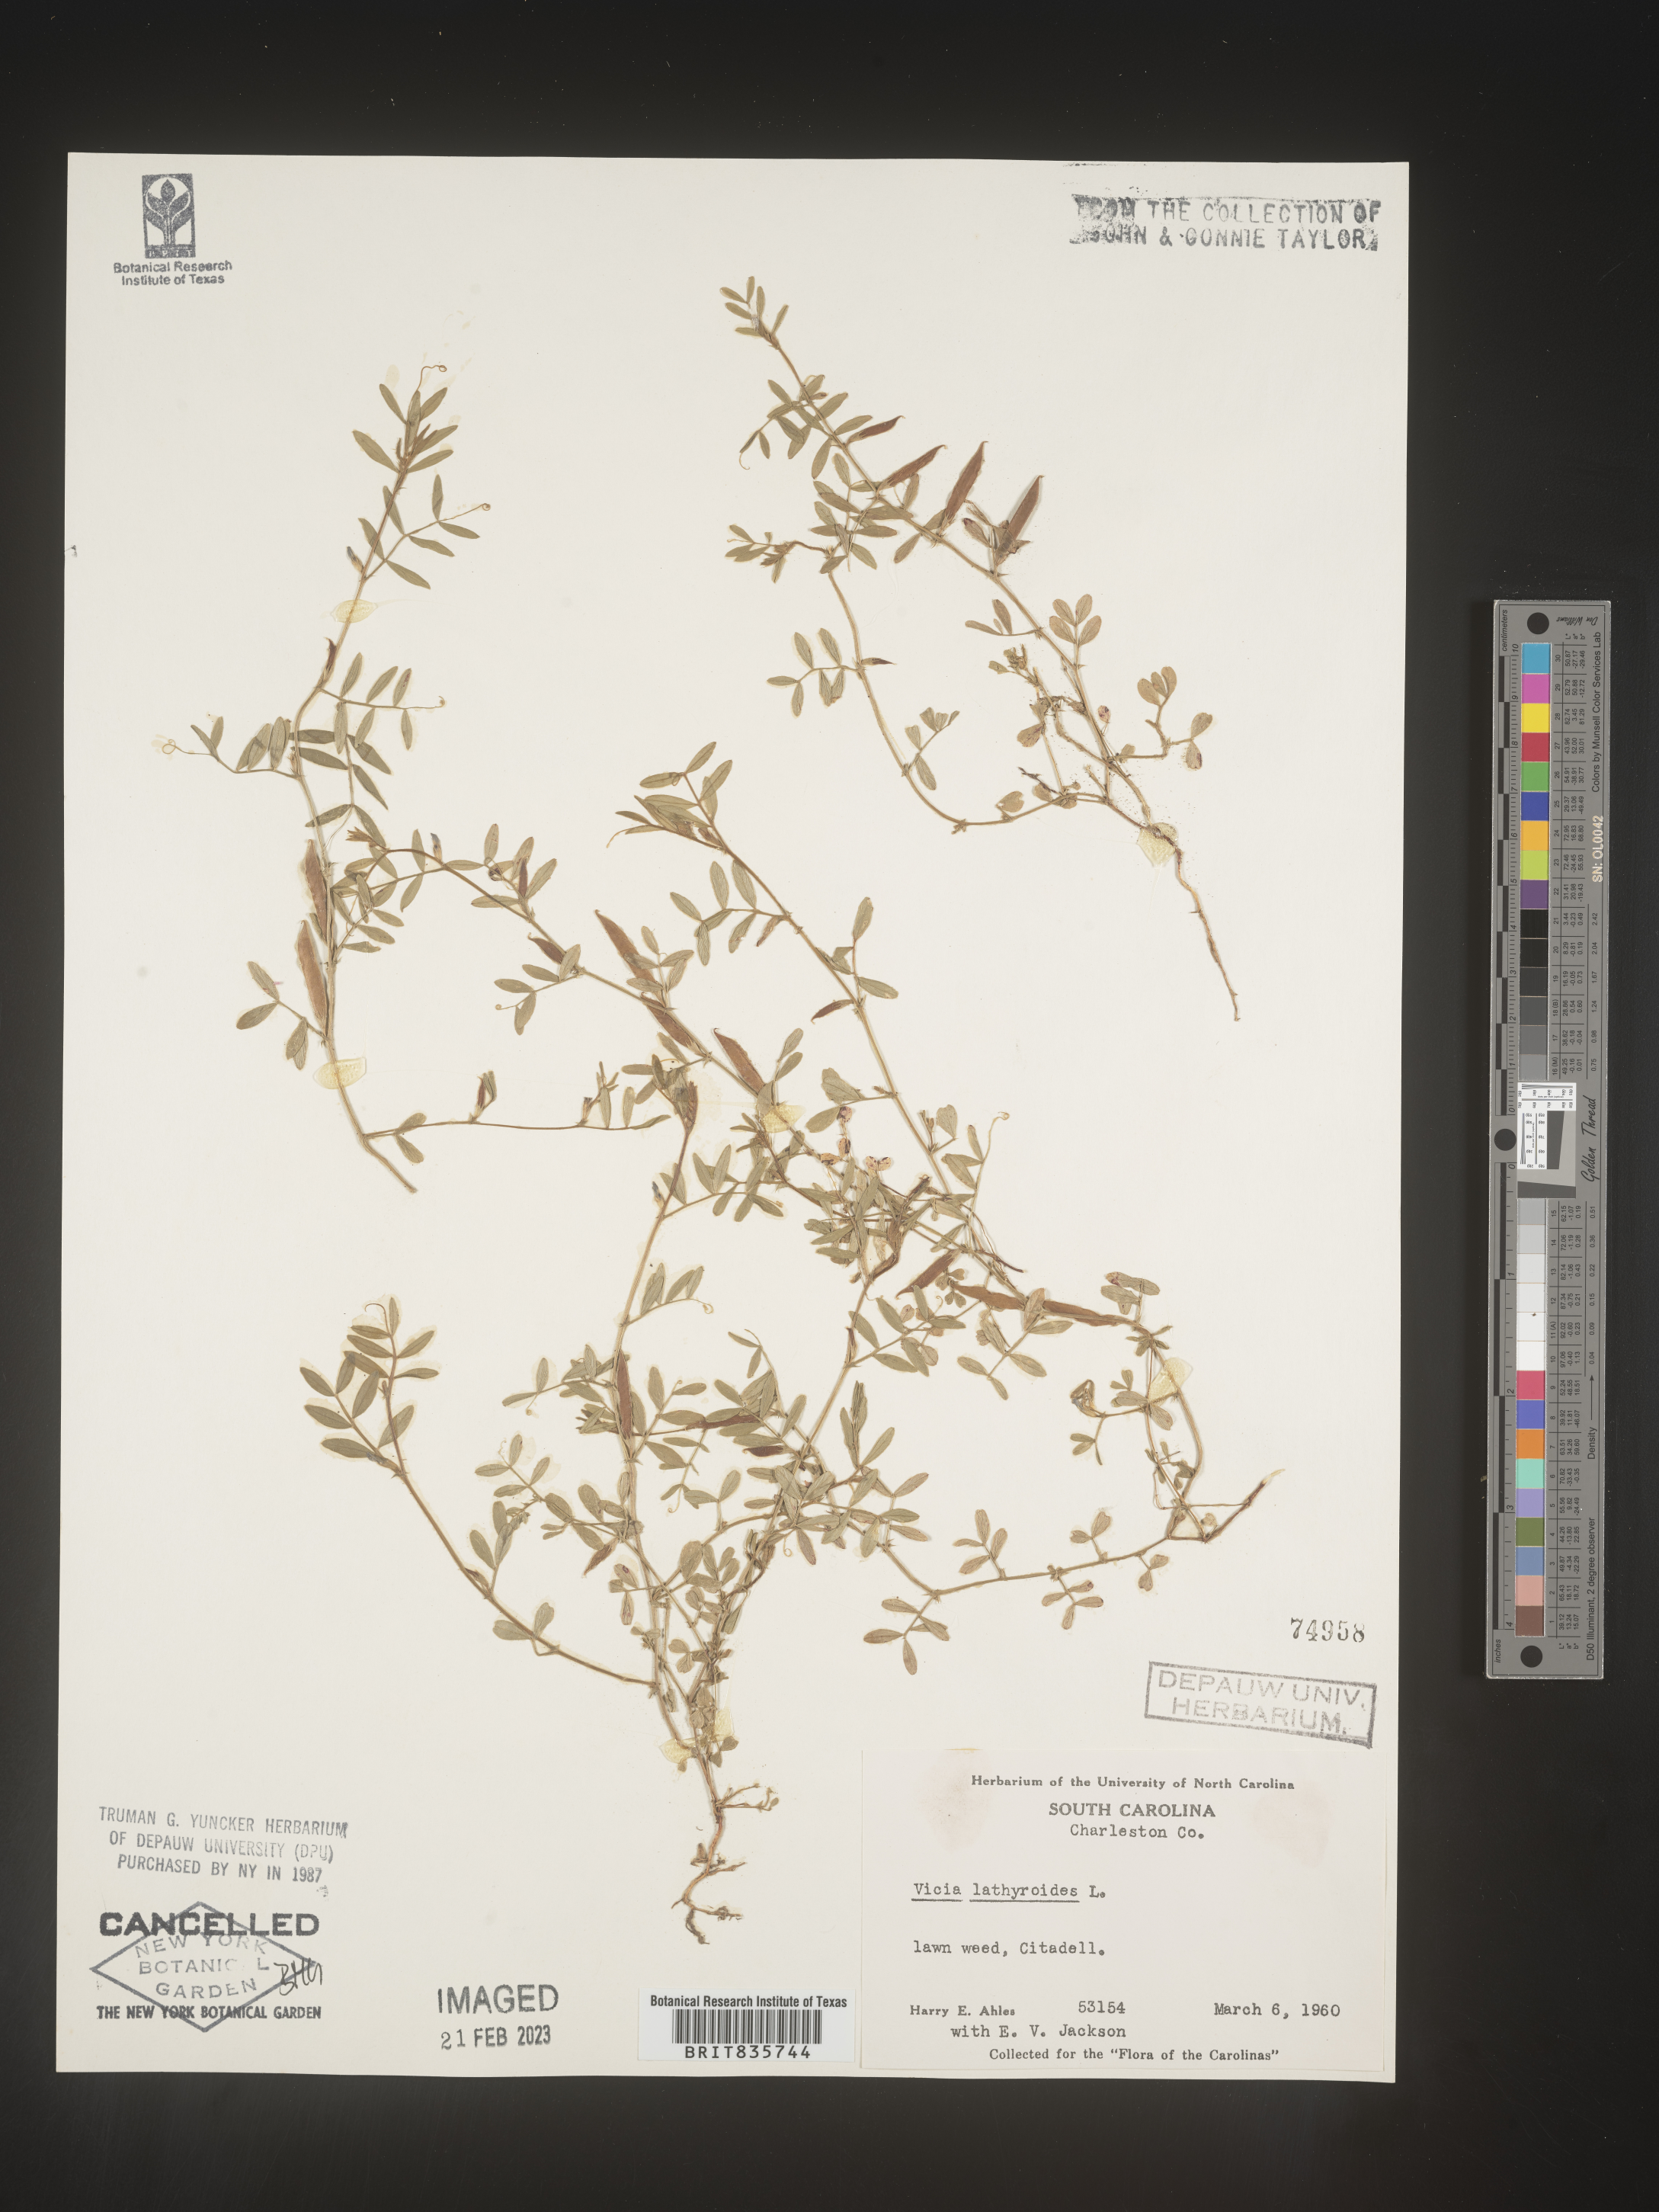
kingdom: Plantae
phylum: Tracheophyta
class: Magnoliopsida
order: Fabales
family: Fabaceae
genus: Vicia
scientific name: Vicia
